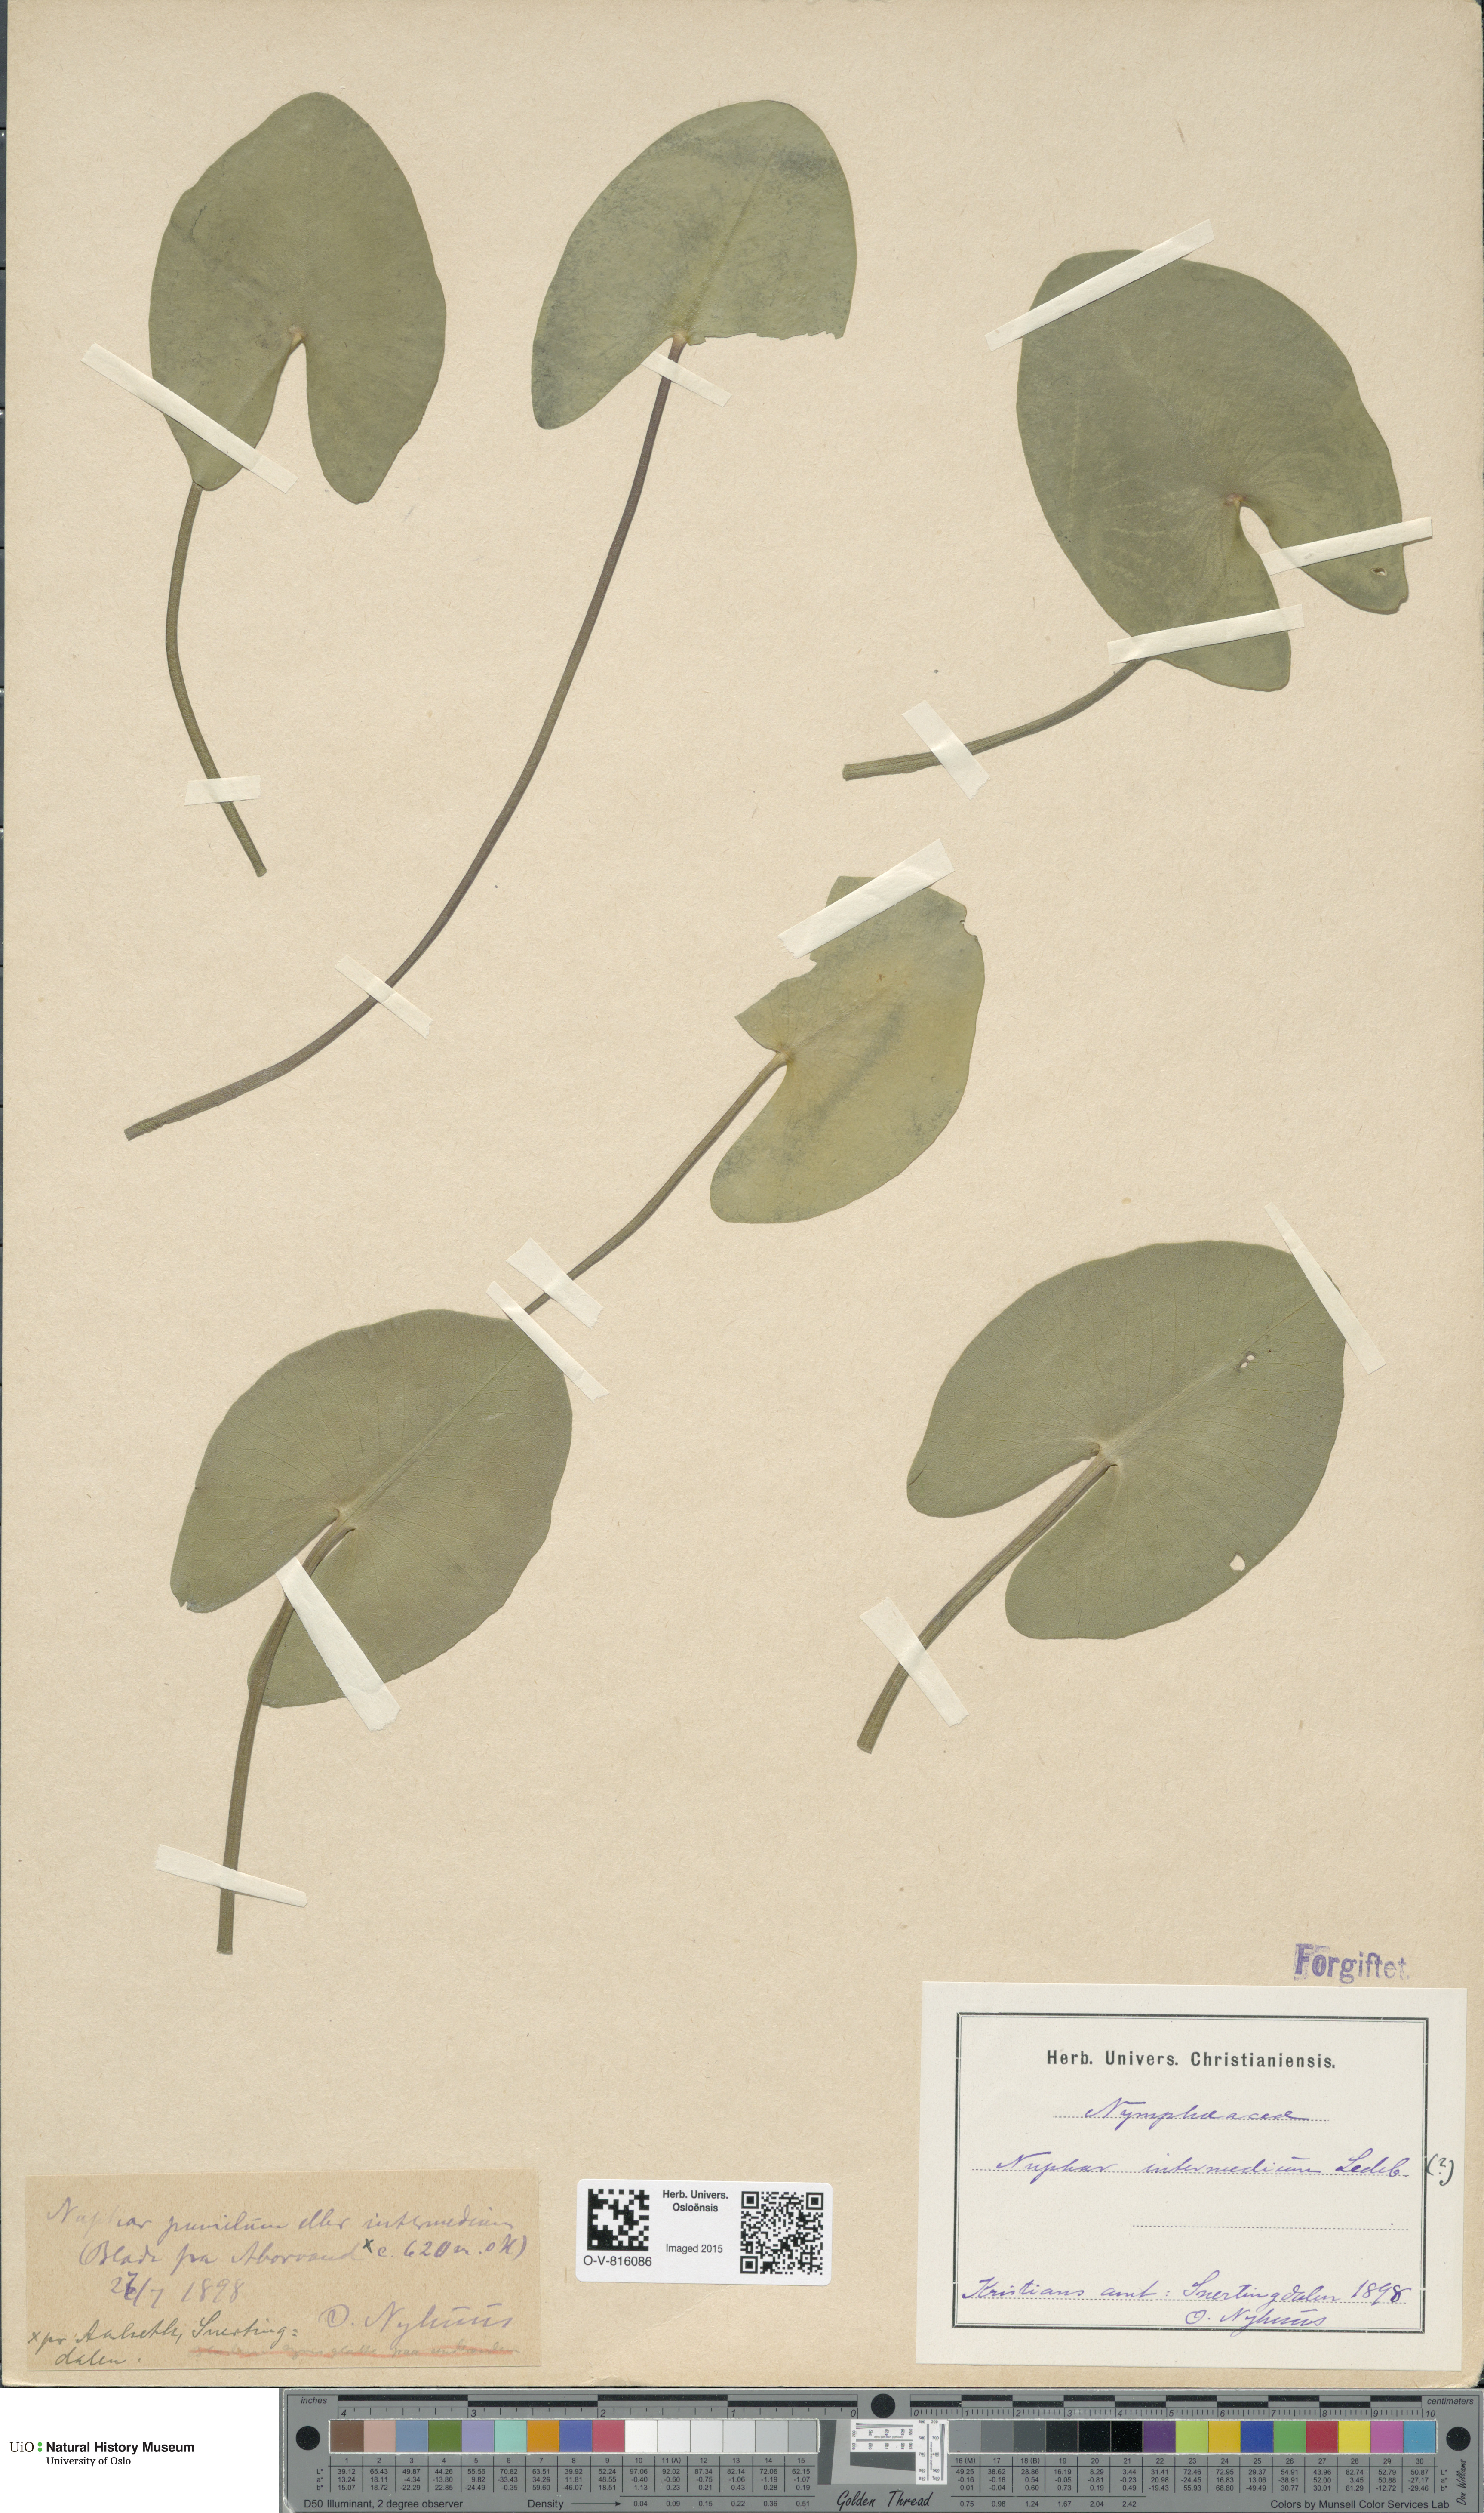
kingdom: Plantae
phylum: Tracheophyta
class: Magnoliopsida
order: Nymphaeales
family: Nymphaeaceae
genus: Nuphar
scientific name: Nuphar
